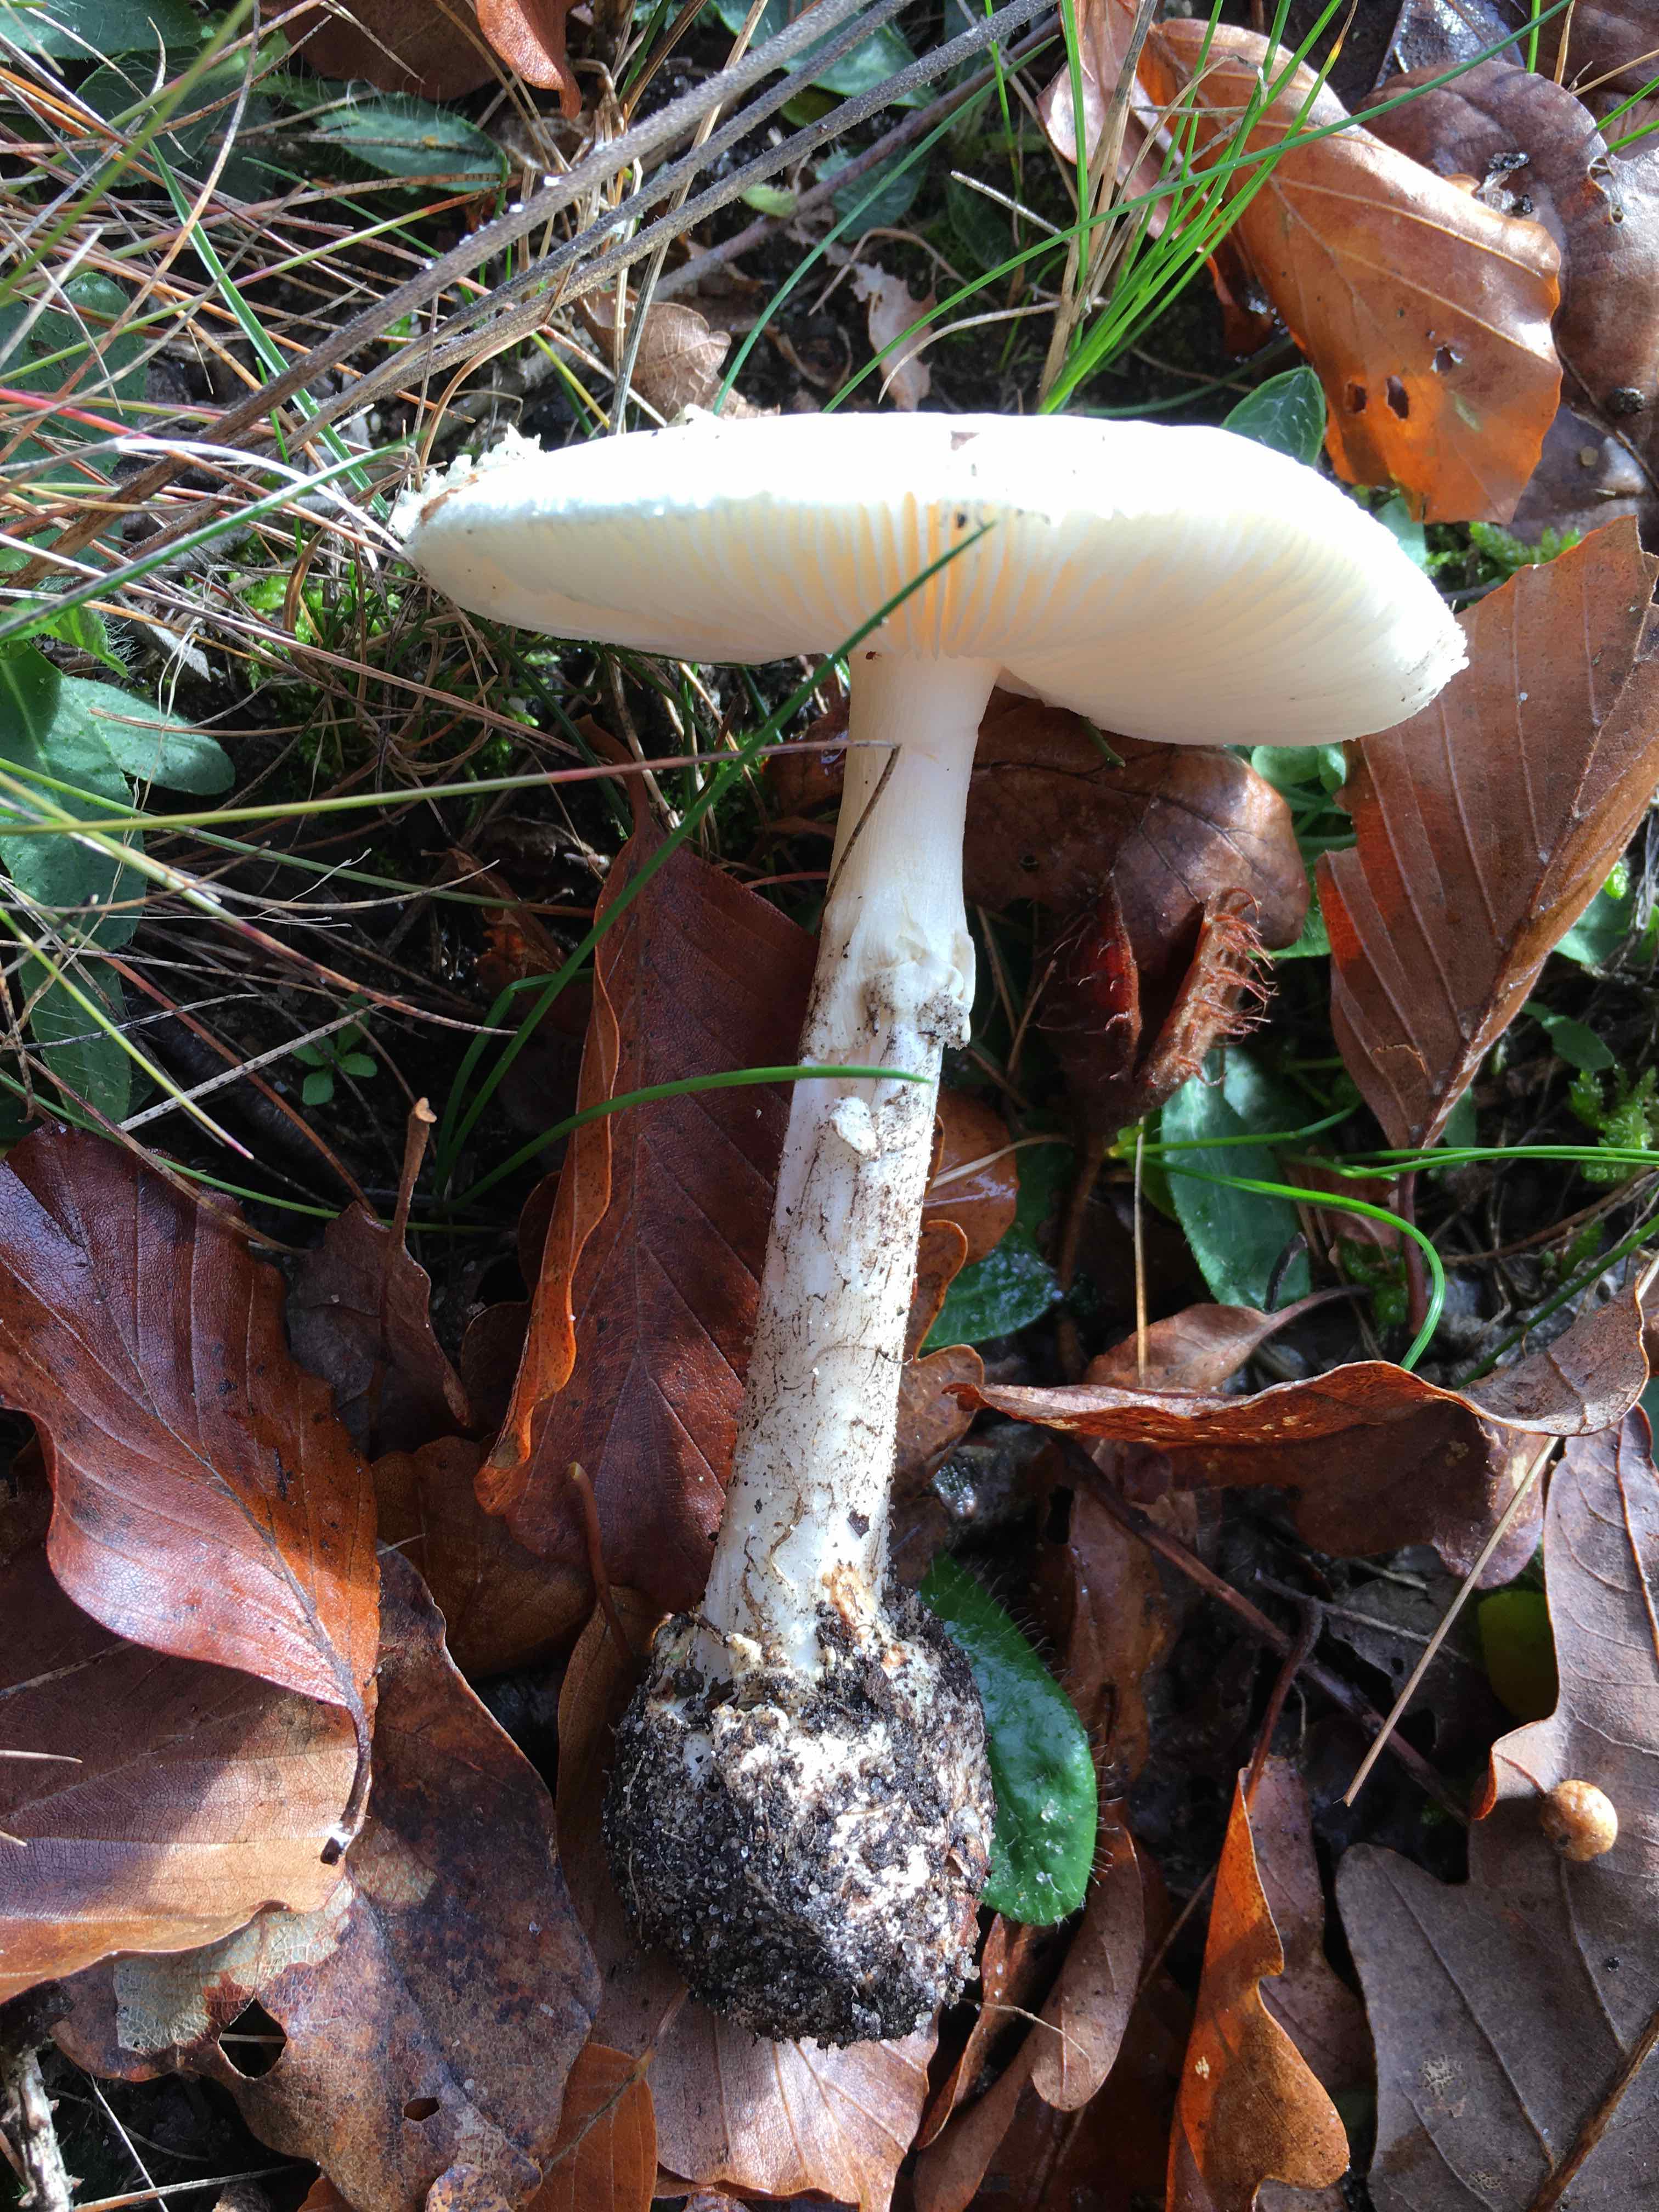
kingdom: Fungi
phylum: Basidiomycota
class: Agaricomycetes
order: Agaricales
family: Amanitaceae
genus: Amanita
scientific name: Amanita citrina
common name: kugleknoldet fluesvamp
